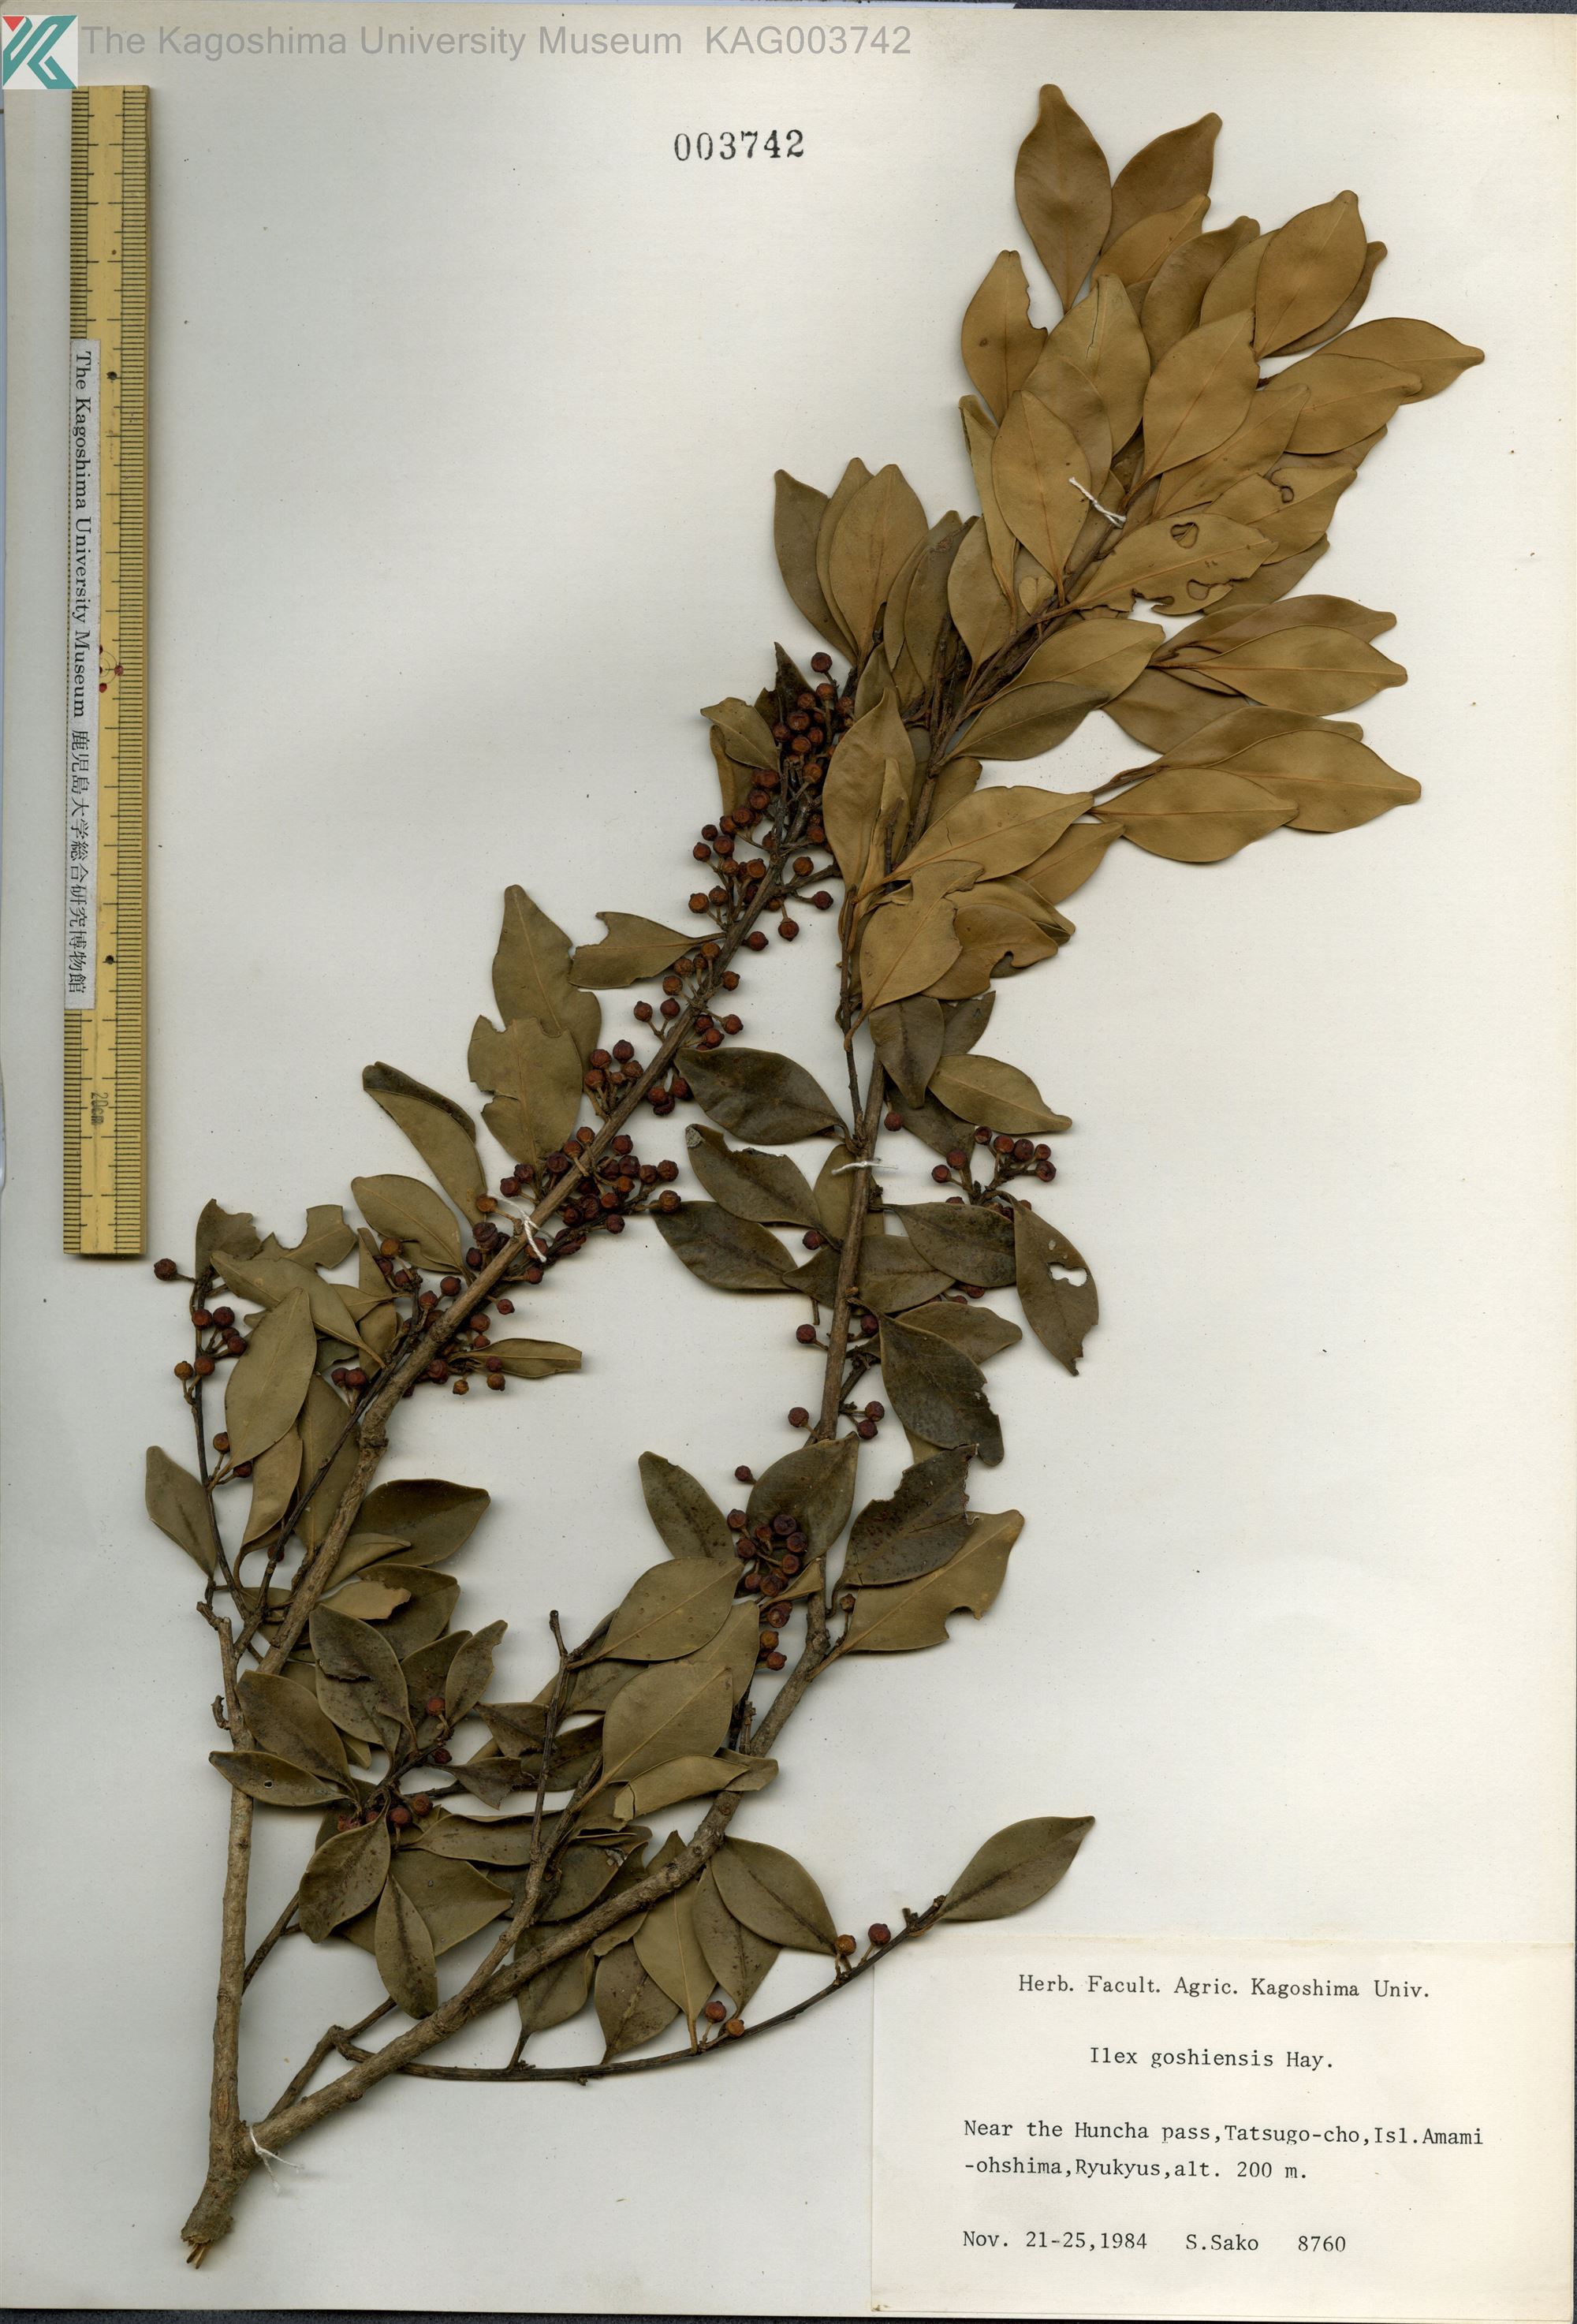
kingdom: Plantae
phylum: Tracheophyta
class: Magnoliopsida
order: Aquifoliales
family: Aquifoliaceae
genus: Ilex
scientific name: Ilex goshiensis
